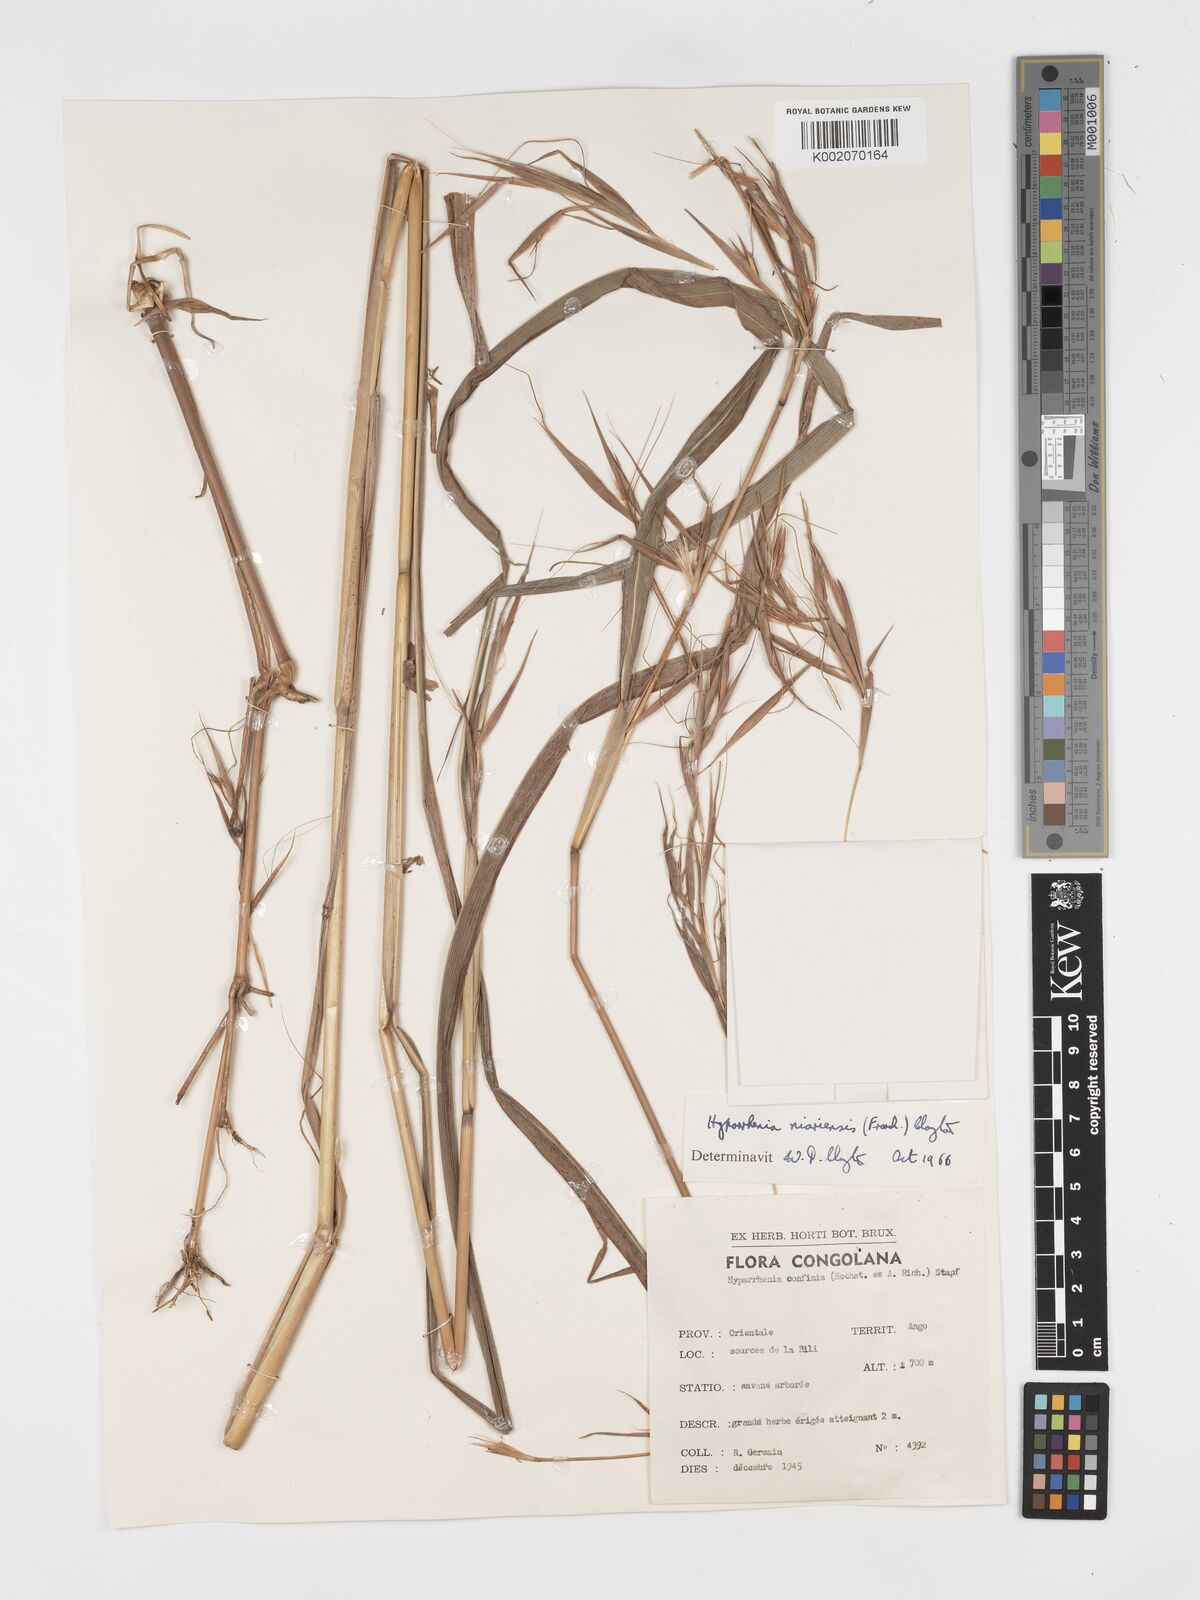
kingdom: Plantae
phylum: Tracheophyta
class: Liliopsida
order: Poales
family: Poaceae
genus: Hyparrhenia
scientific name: Hyparrhenia niariensis
